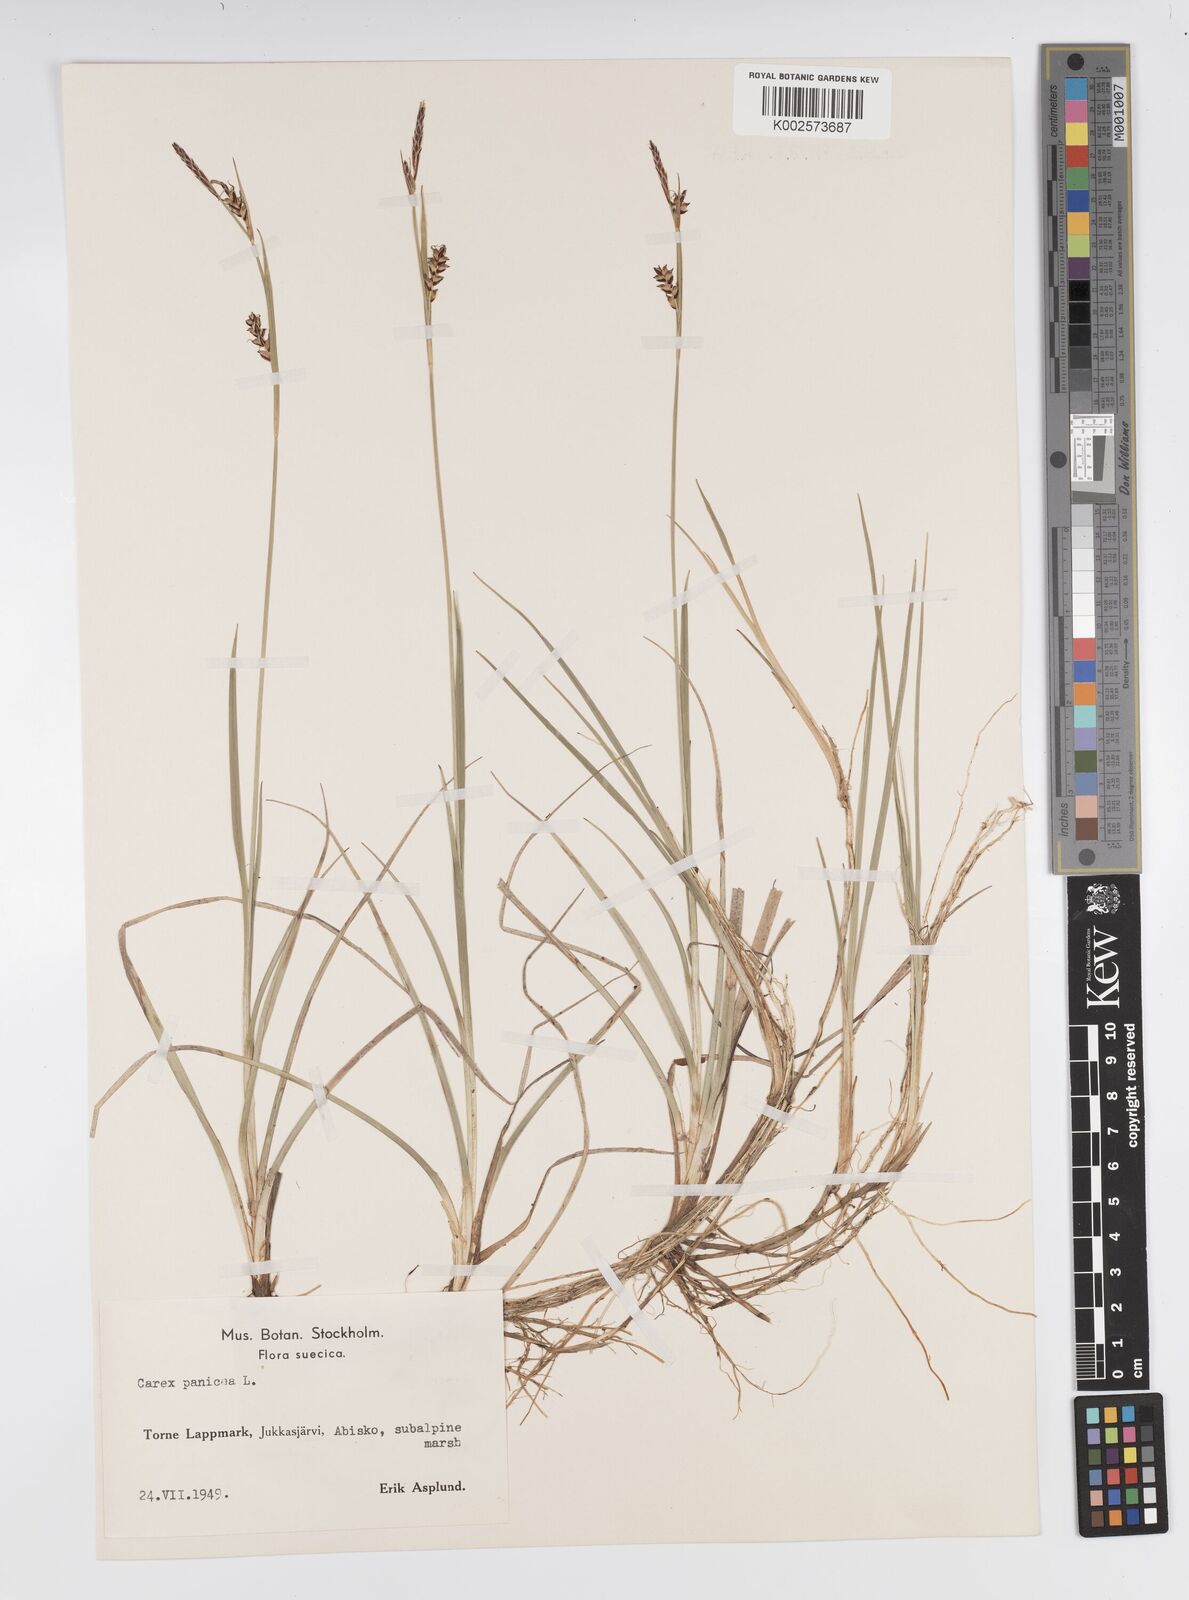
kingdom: Plantae
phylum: Tracheophyta
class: Liliopsida
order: Poales
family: Cyperaceae
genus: Carex
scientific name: Carex panicea
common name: Carnation sedge
